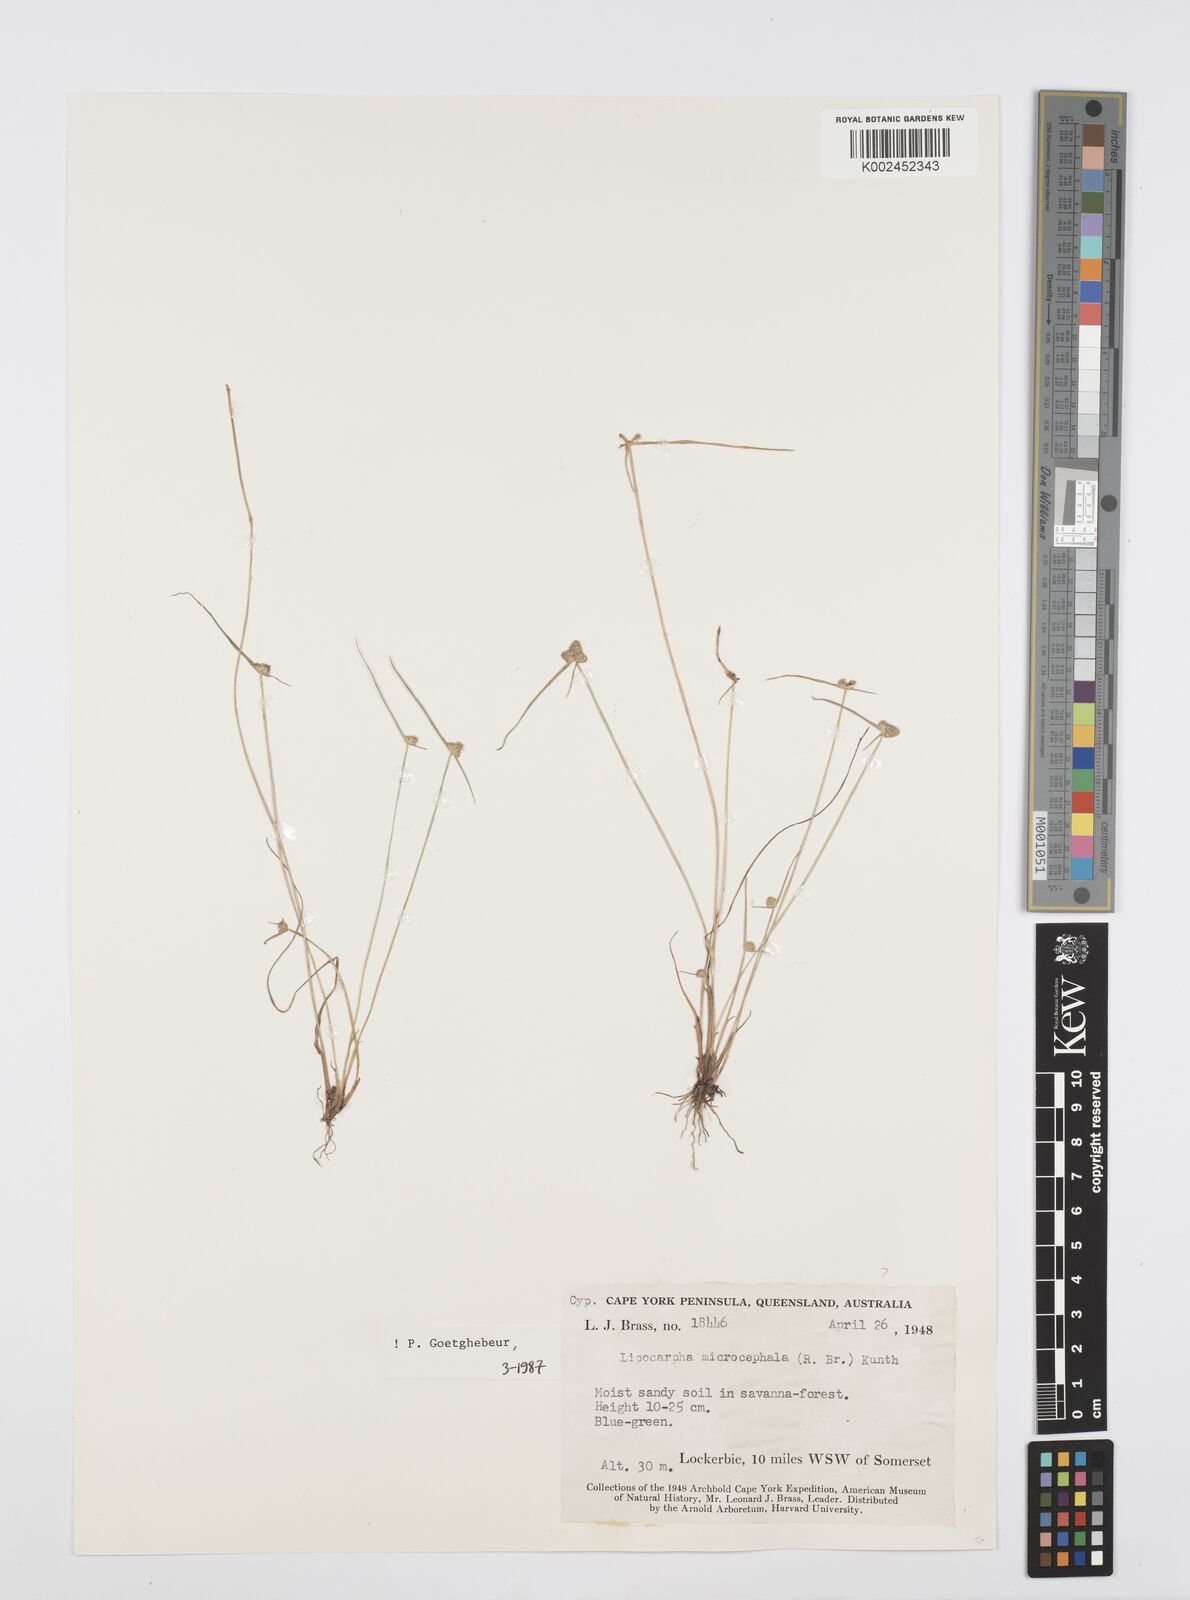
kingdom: Plantae
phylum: Tracheophyta
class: Liliopsida
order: Poales
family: Cyperaceae
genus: Cyperus
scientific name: Cyperus microcephalus
